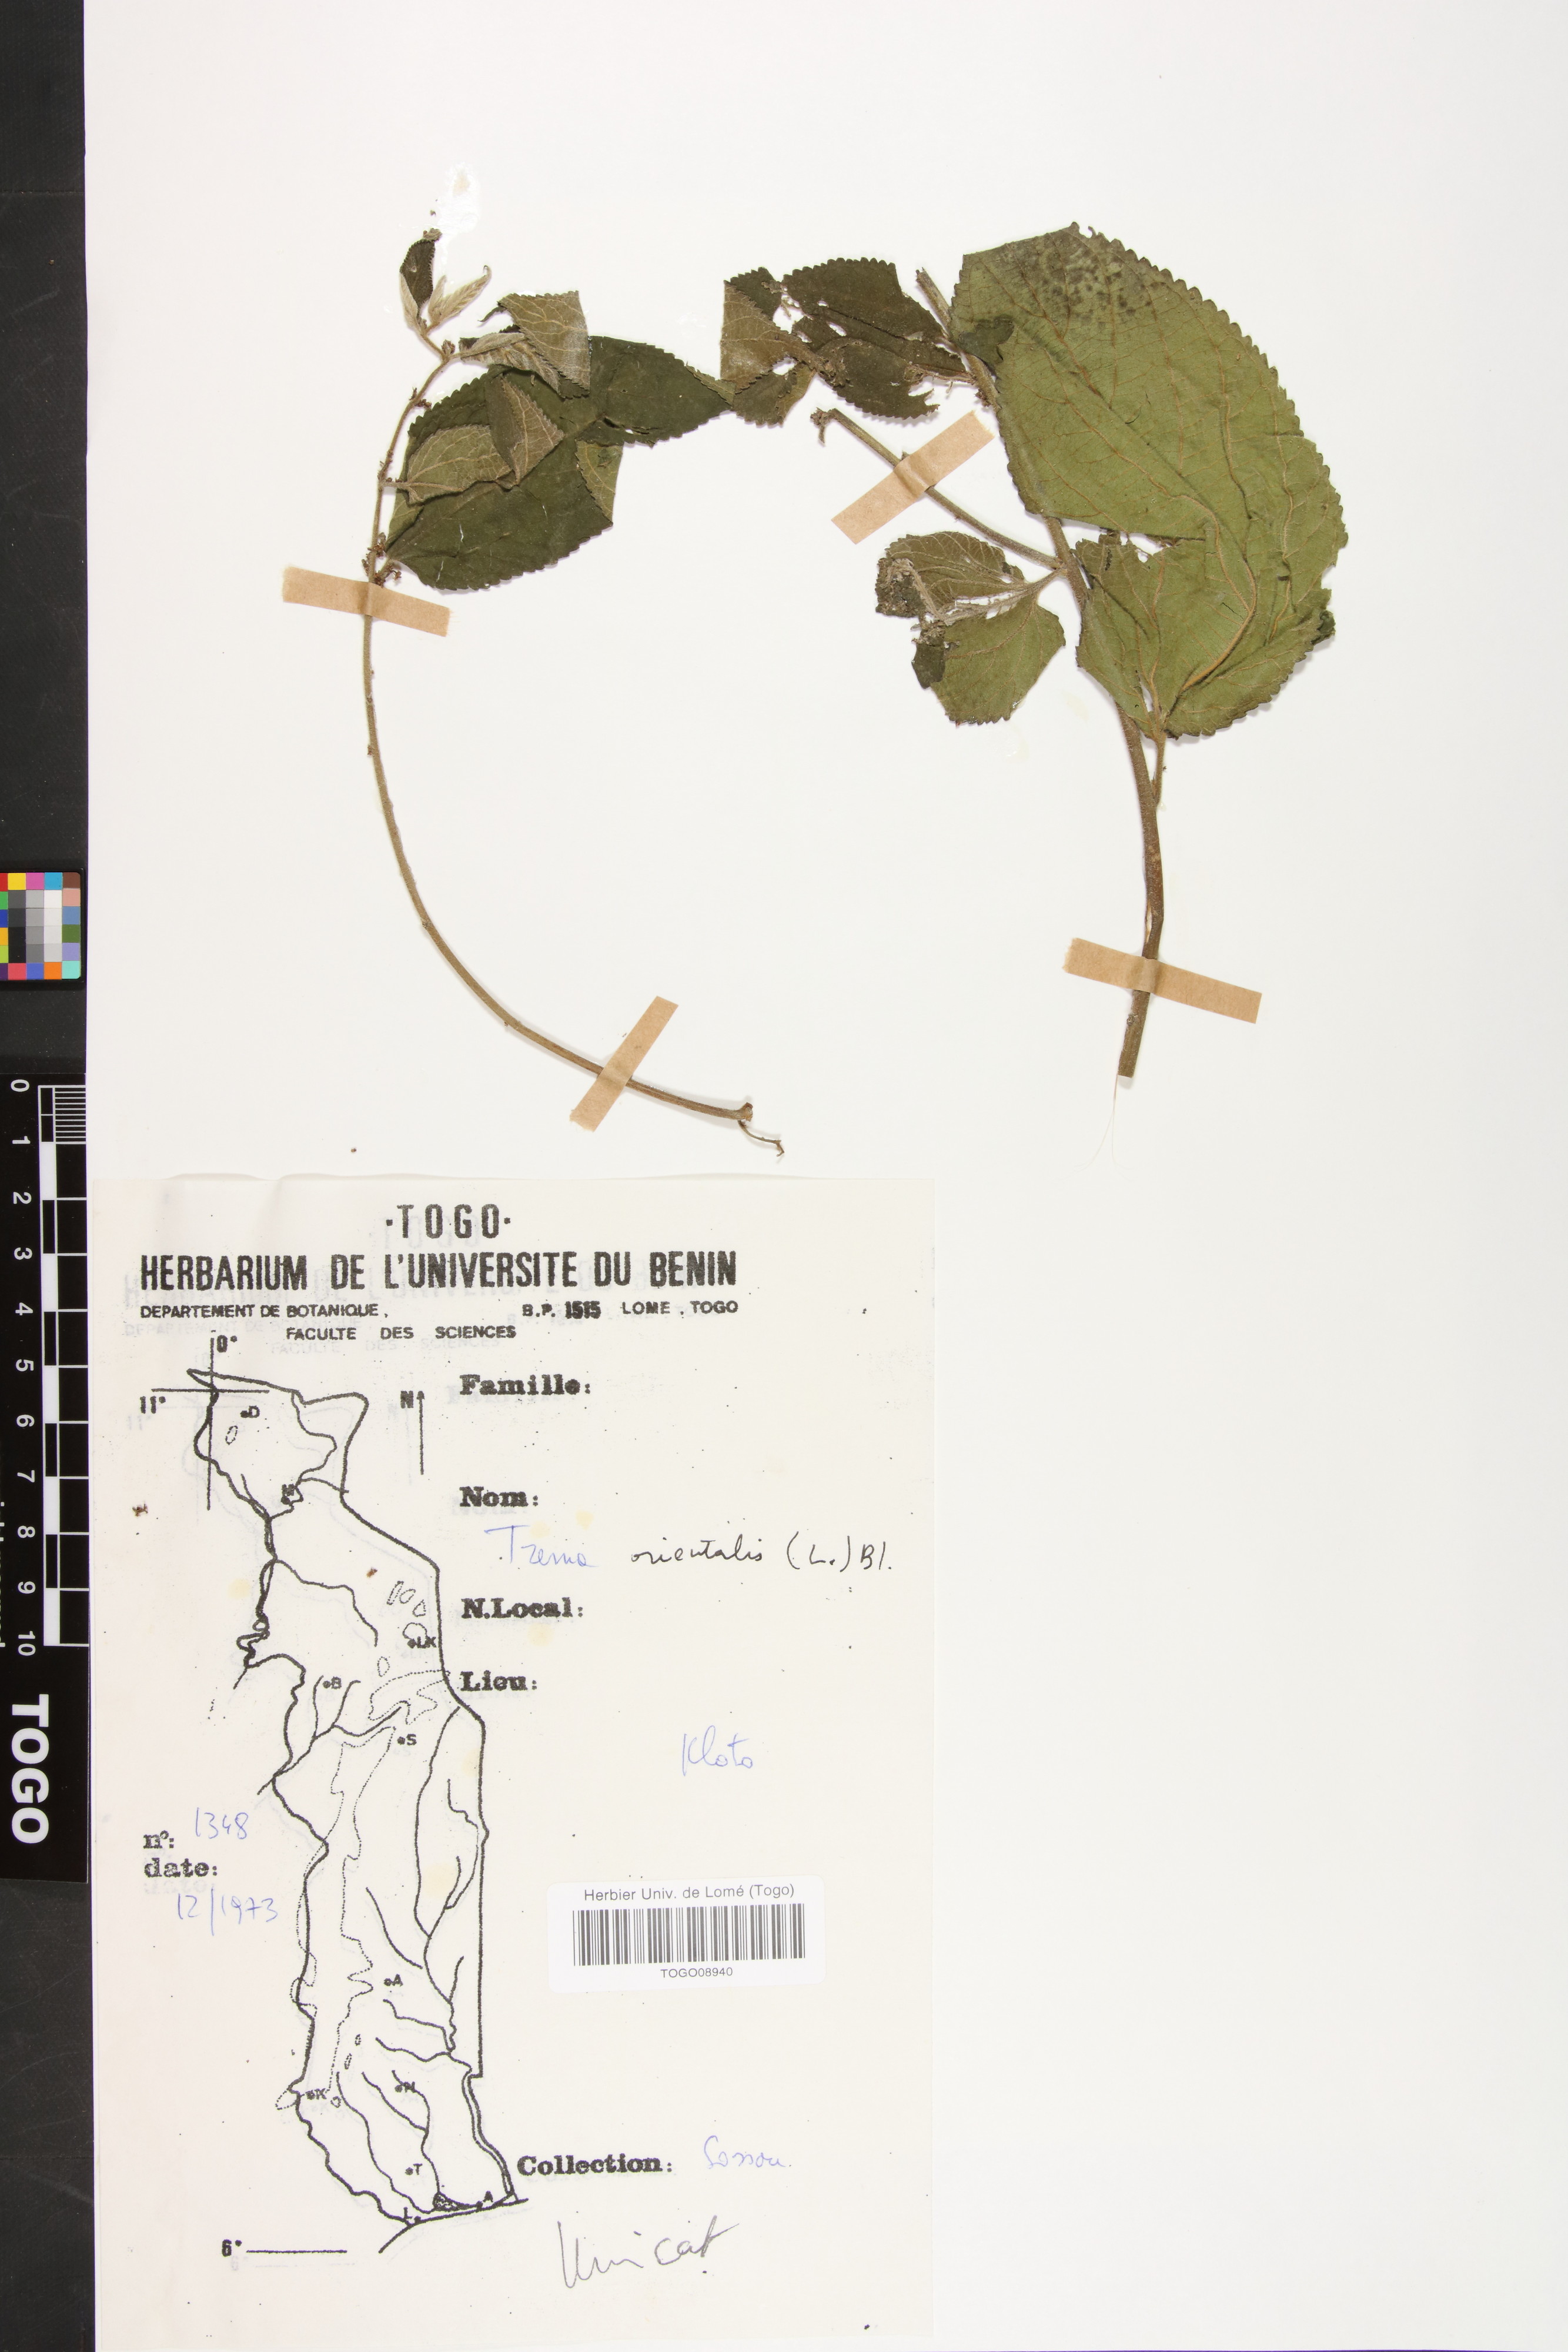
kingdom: Plantae
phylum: Tracheophyta
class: Magnoliopsida
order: Rosales
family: Cannabaceae
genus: Trema
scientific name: Trema orientale
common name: Indian charcoal tree
